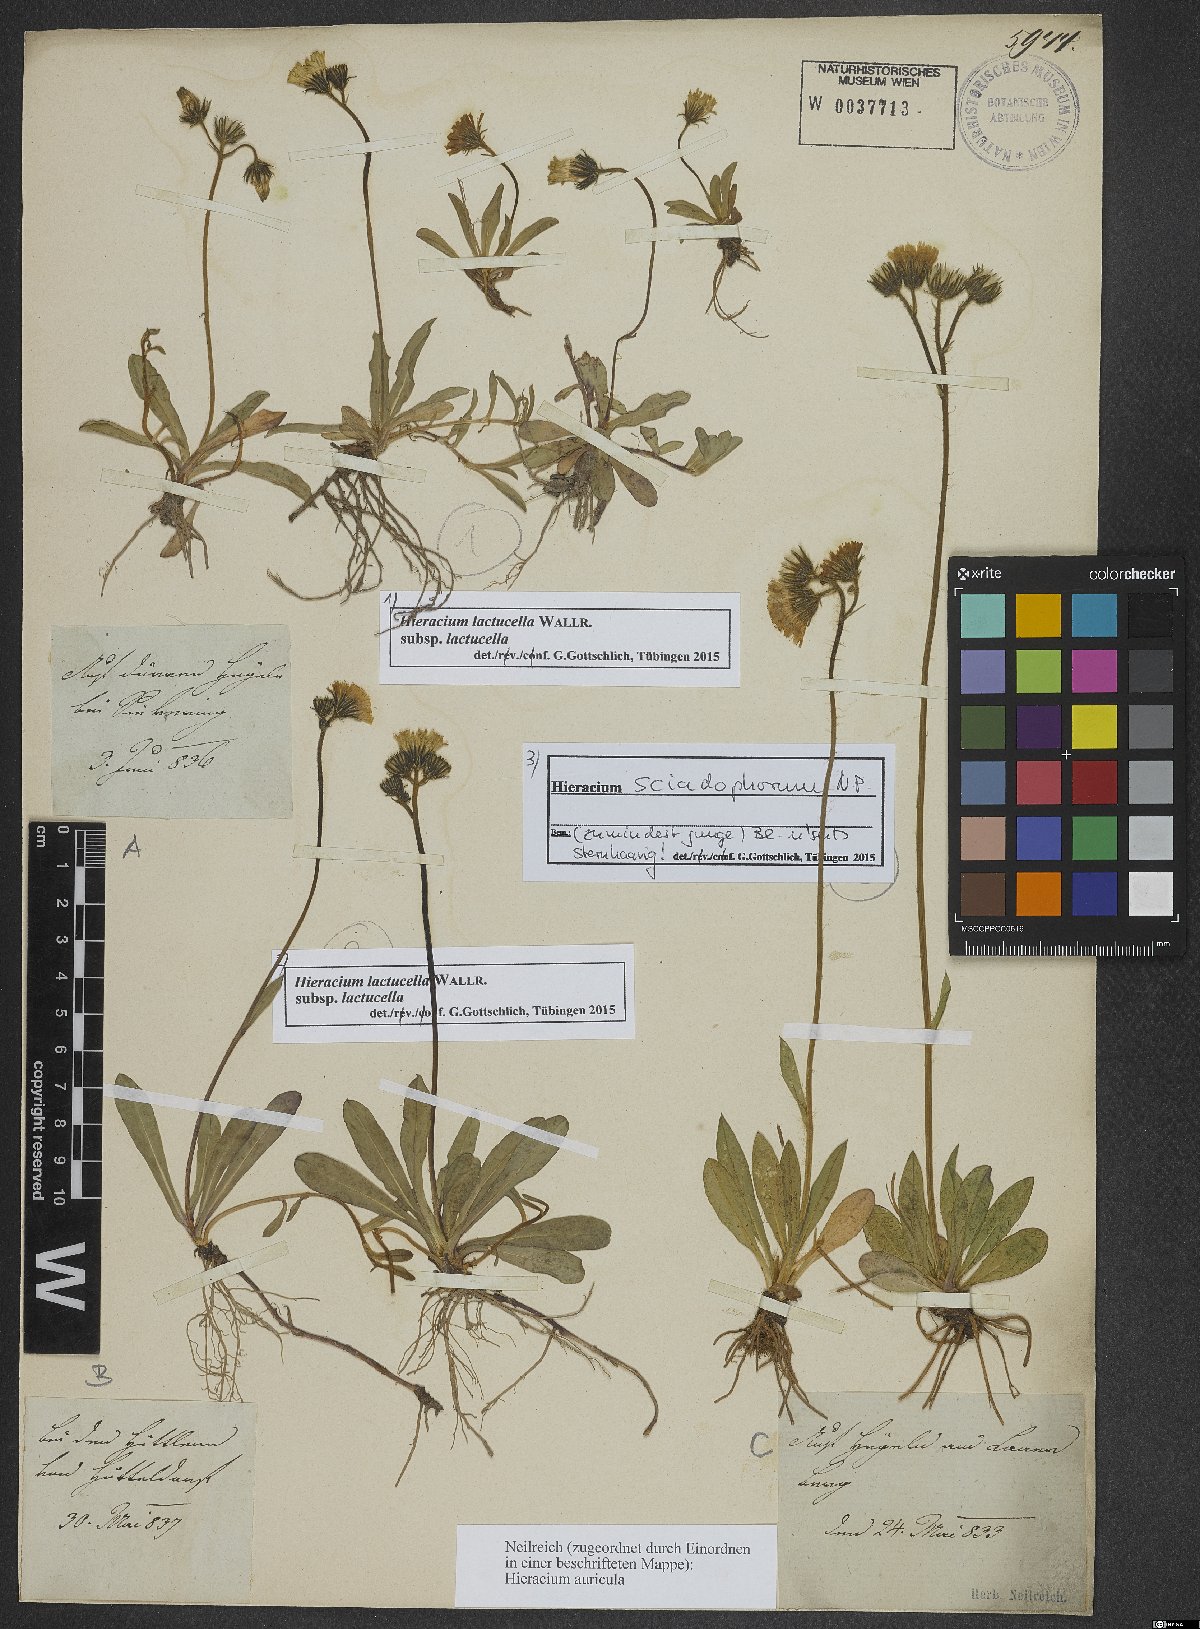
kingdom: Plantae
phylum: Tracheophyta
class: Magnoliopsida
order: Asterales
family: Asteraceae
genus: Pilosella
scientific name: Pilosella lactucella
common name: Glaucous fox-and-cubs
